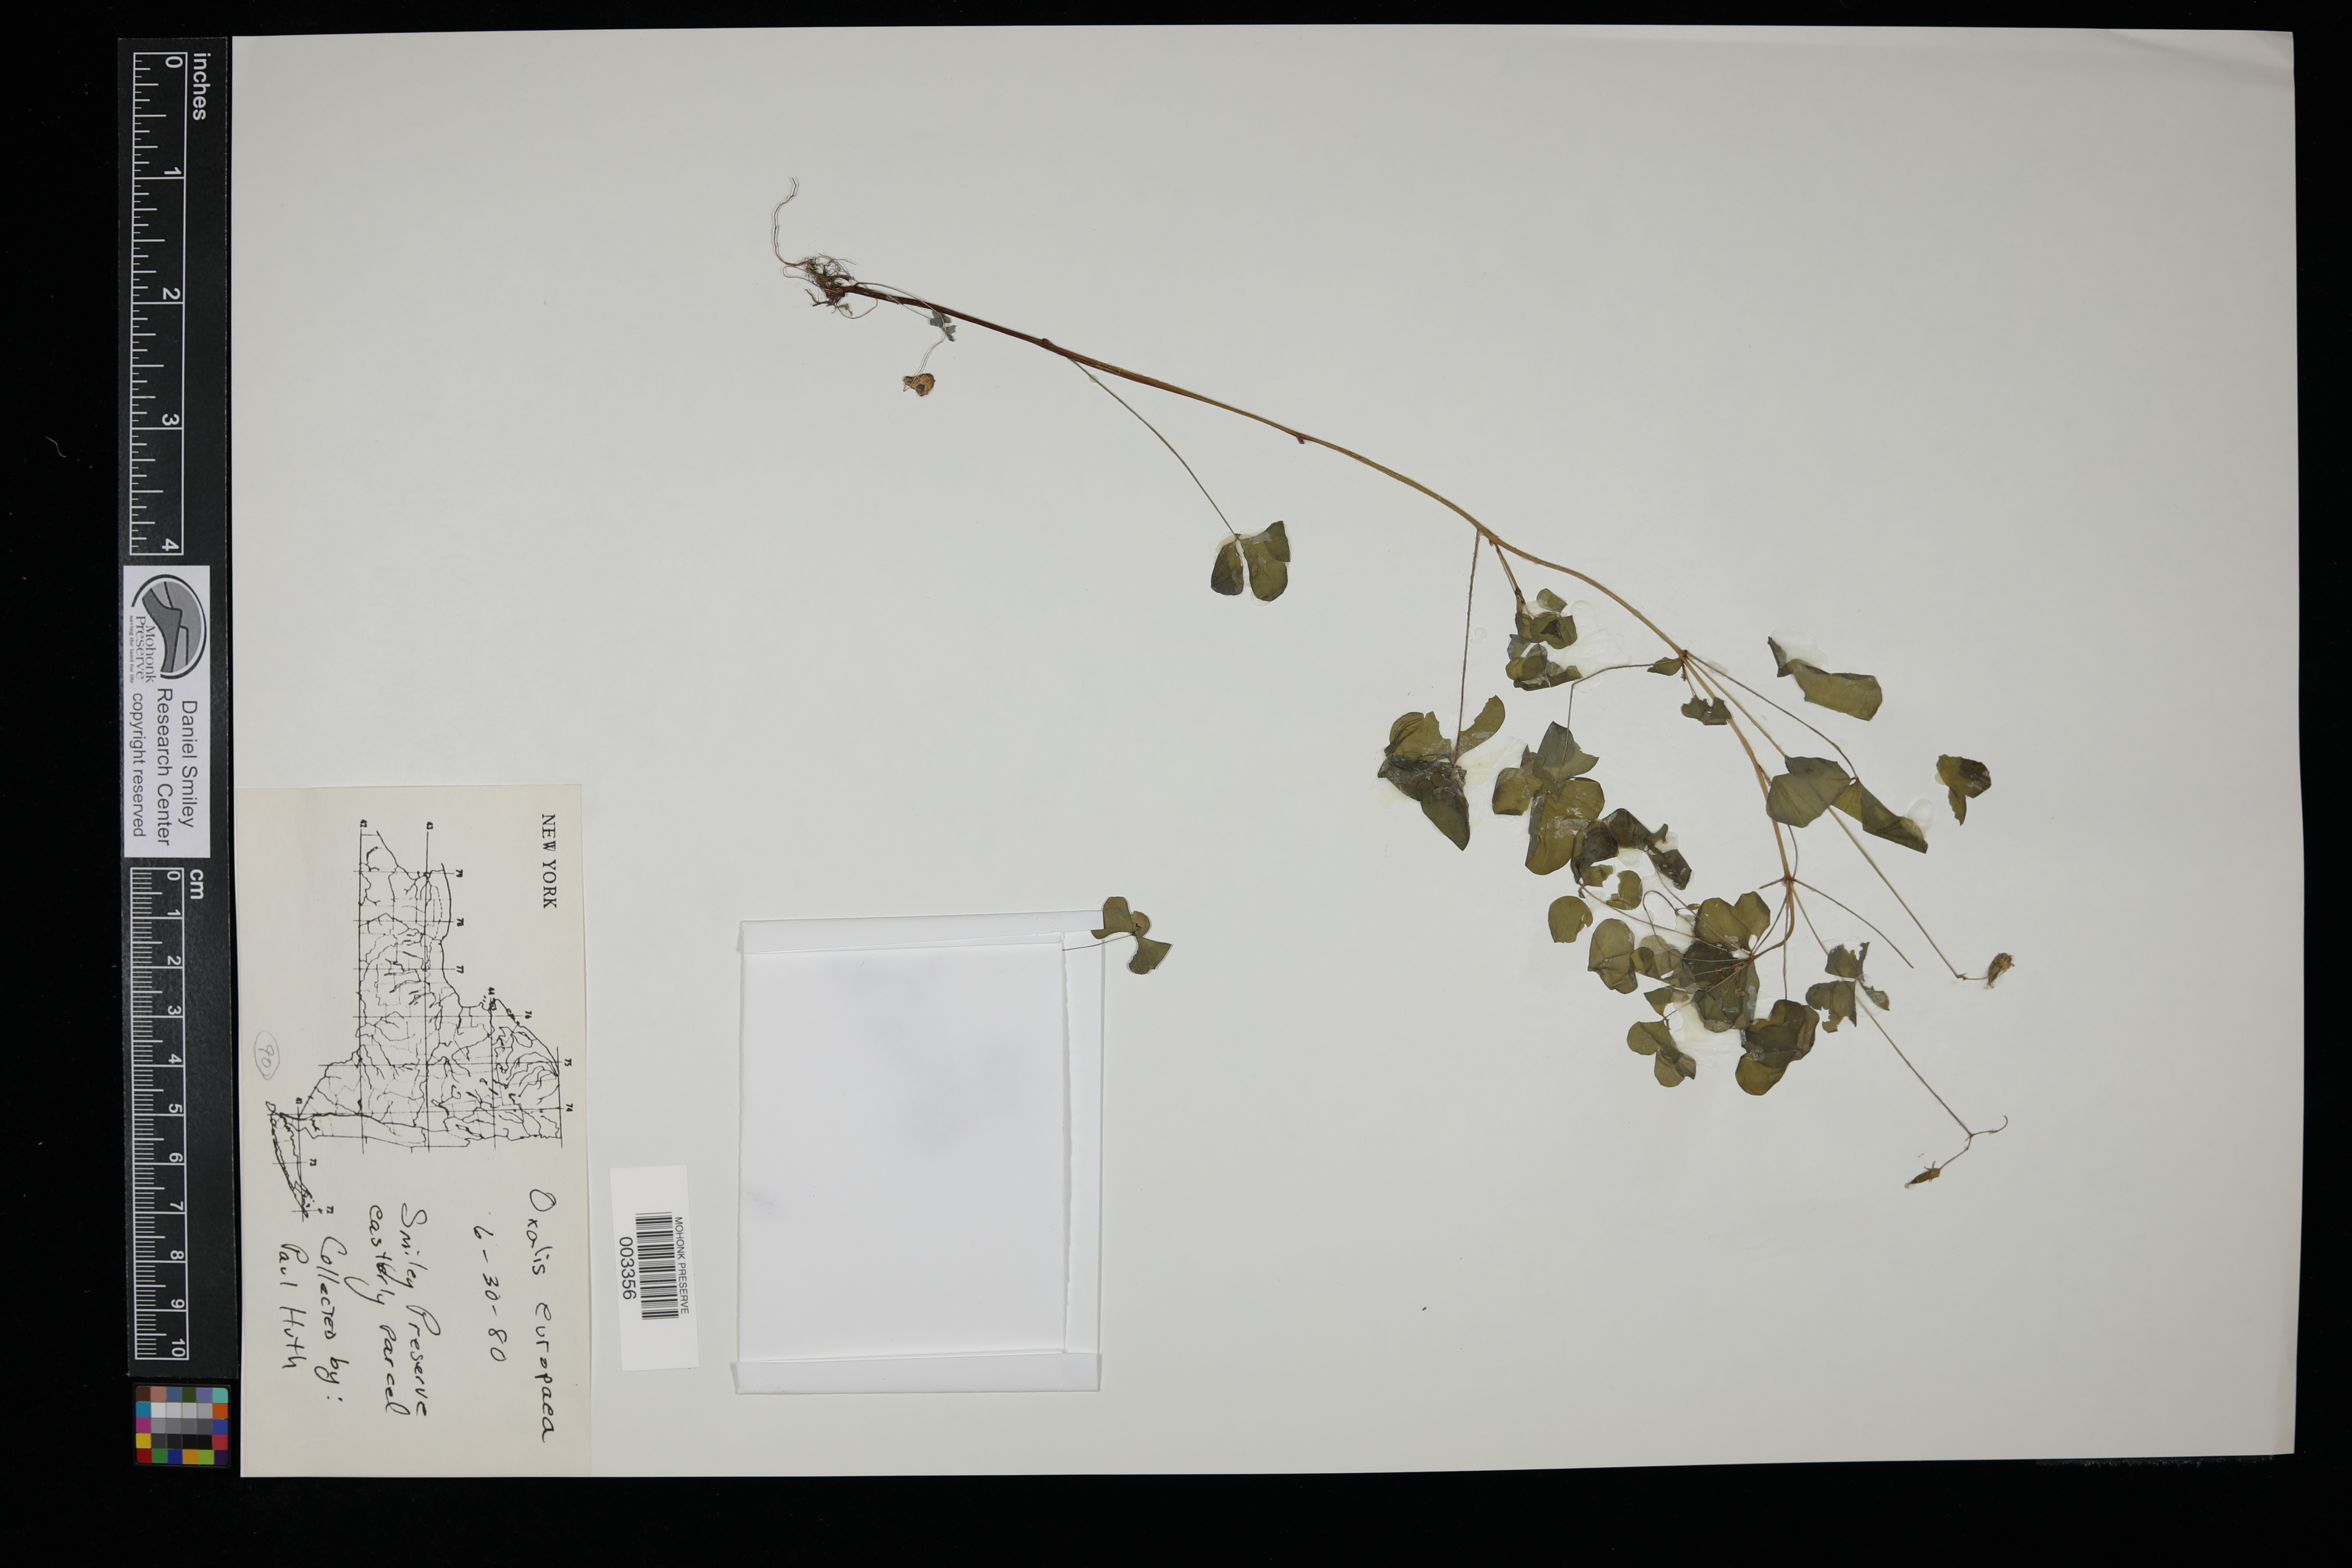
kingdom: Plantae
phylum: Tracheophyta
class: Magnoliopsida
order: Oxalidales
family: Oxalidaceae
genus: Oxalis
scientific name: Oxalis stricta
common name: Upright yellow-sorrel
